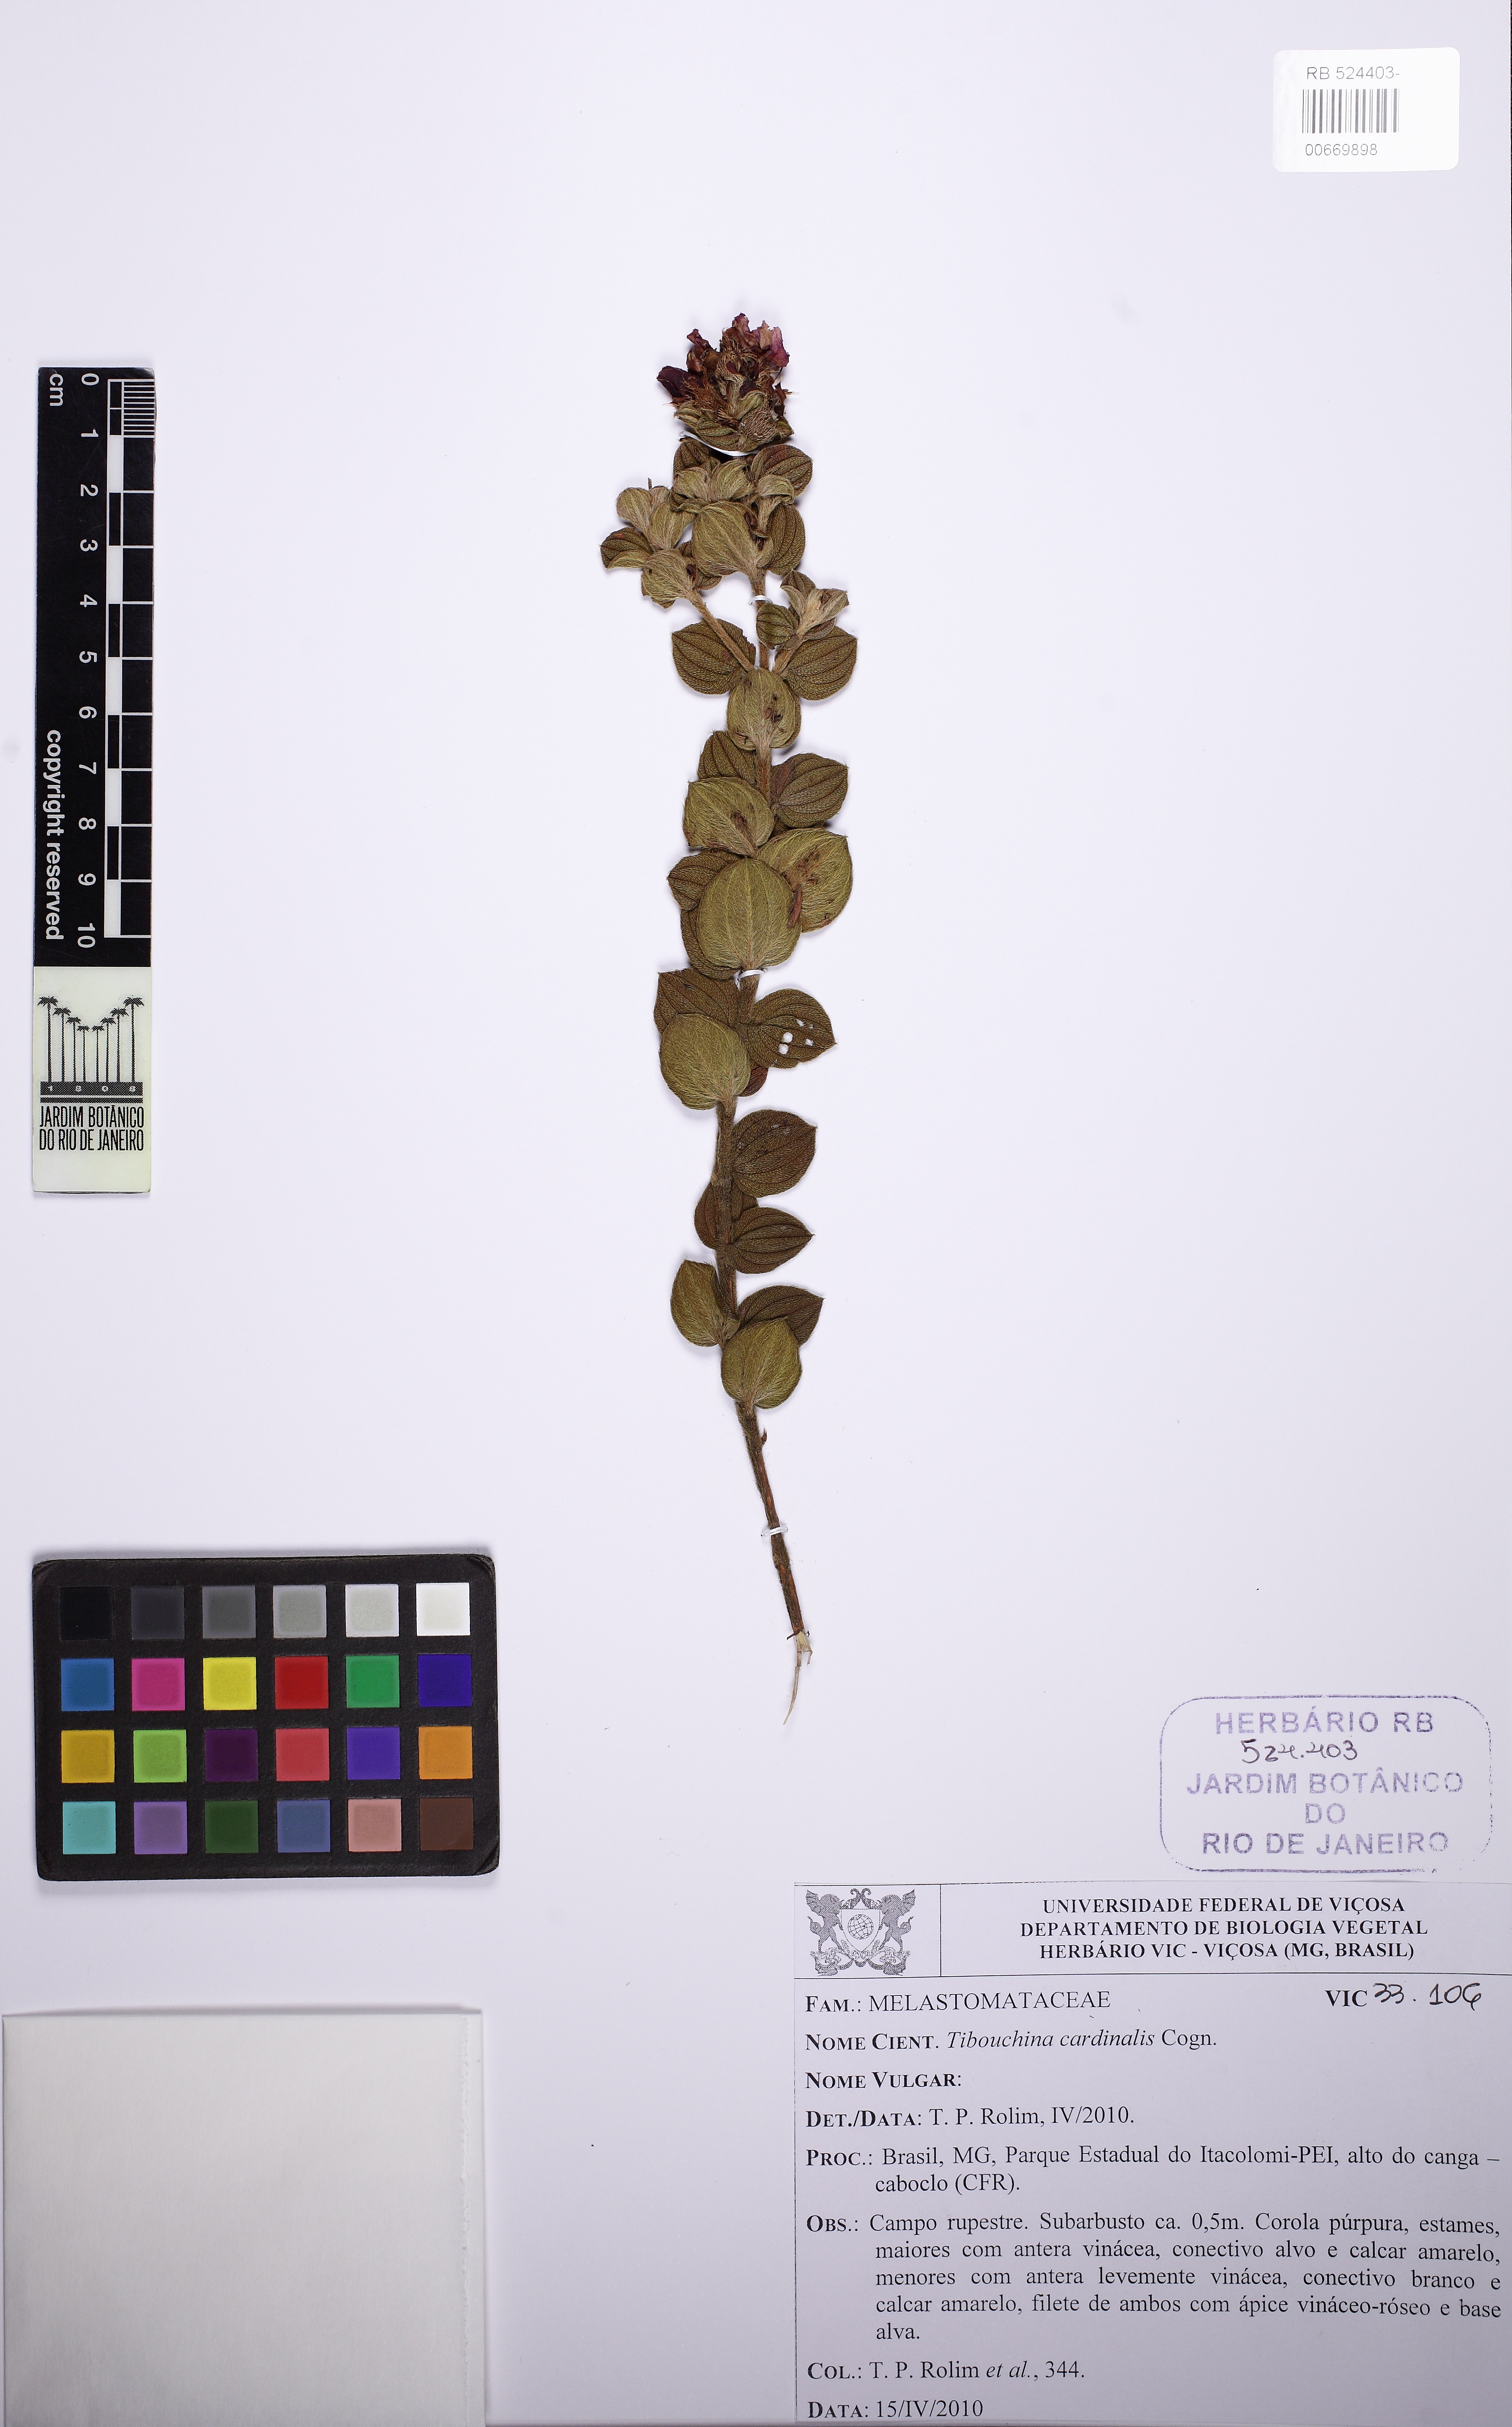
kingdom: Plantae
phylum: Tracheophyta
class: Magnoliopsida
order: Myrtales
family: Melastomataceae
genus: Chaetogastra
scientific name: Chaetogastra cardinalis
